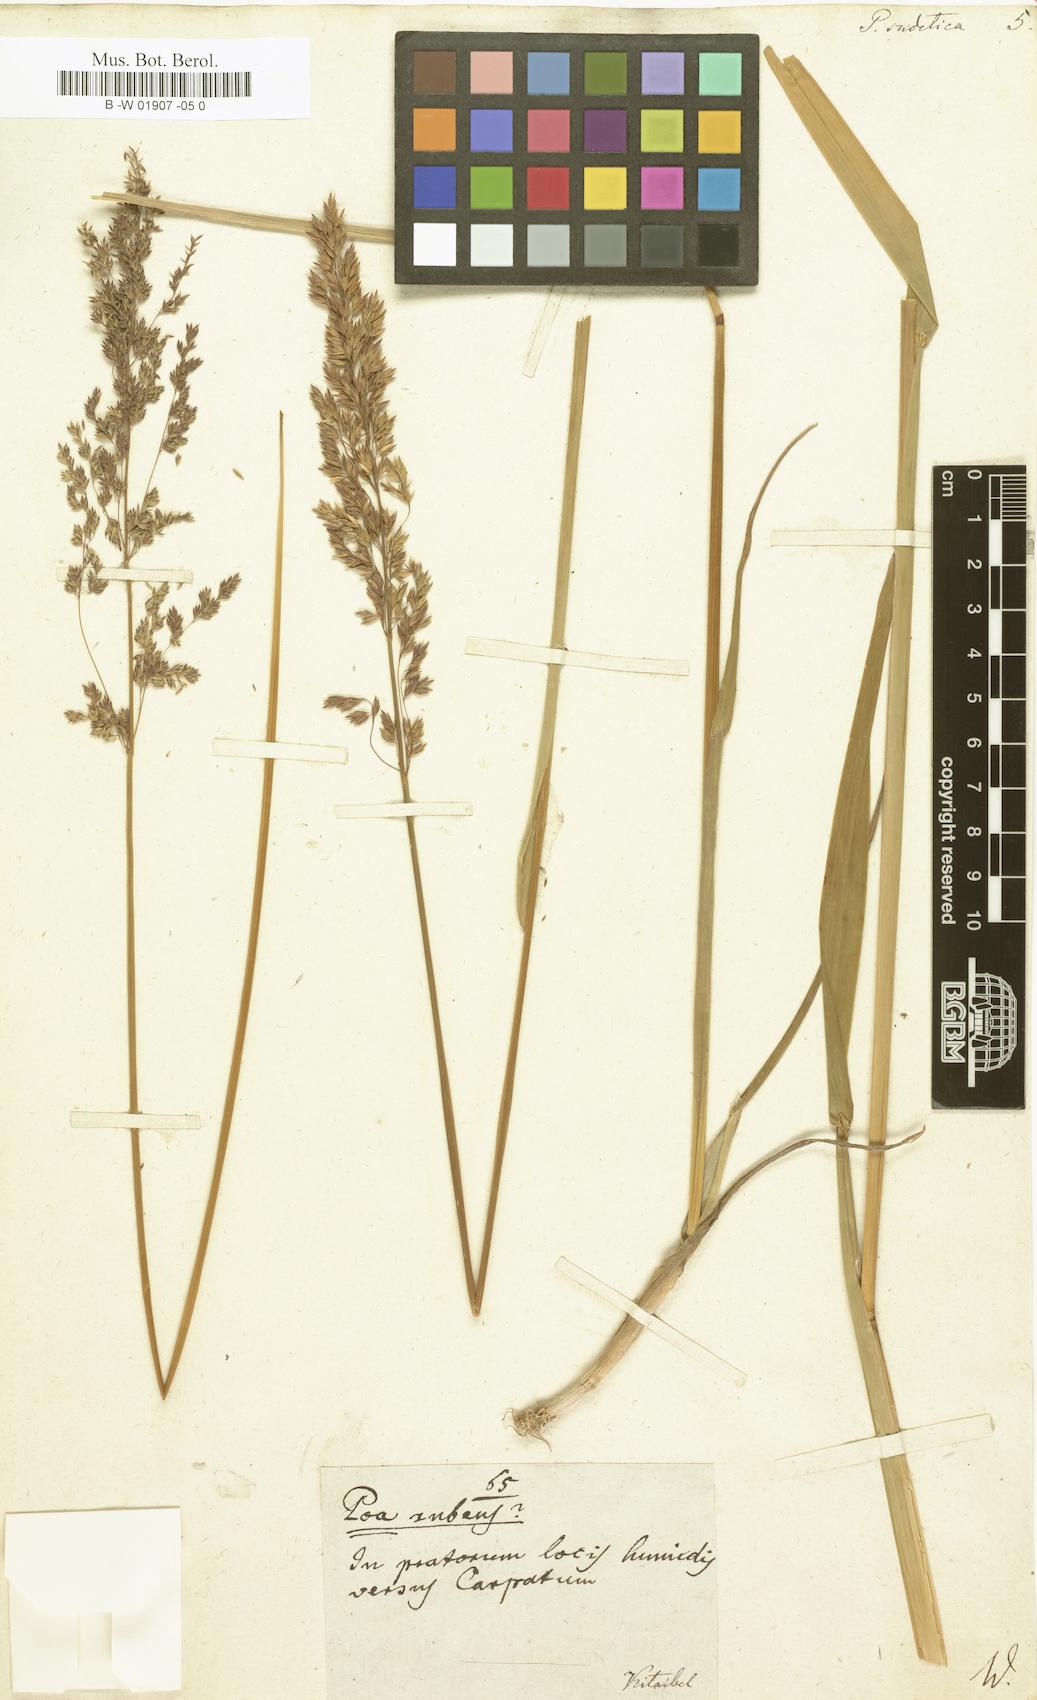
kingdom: Plantae
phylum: Tracheophyta
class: Liliopsida
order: Poales
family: Poaceae
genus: Poa
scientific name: Poa chaixii
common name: Broad-leaved meadow-grass
